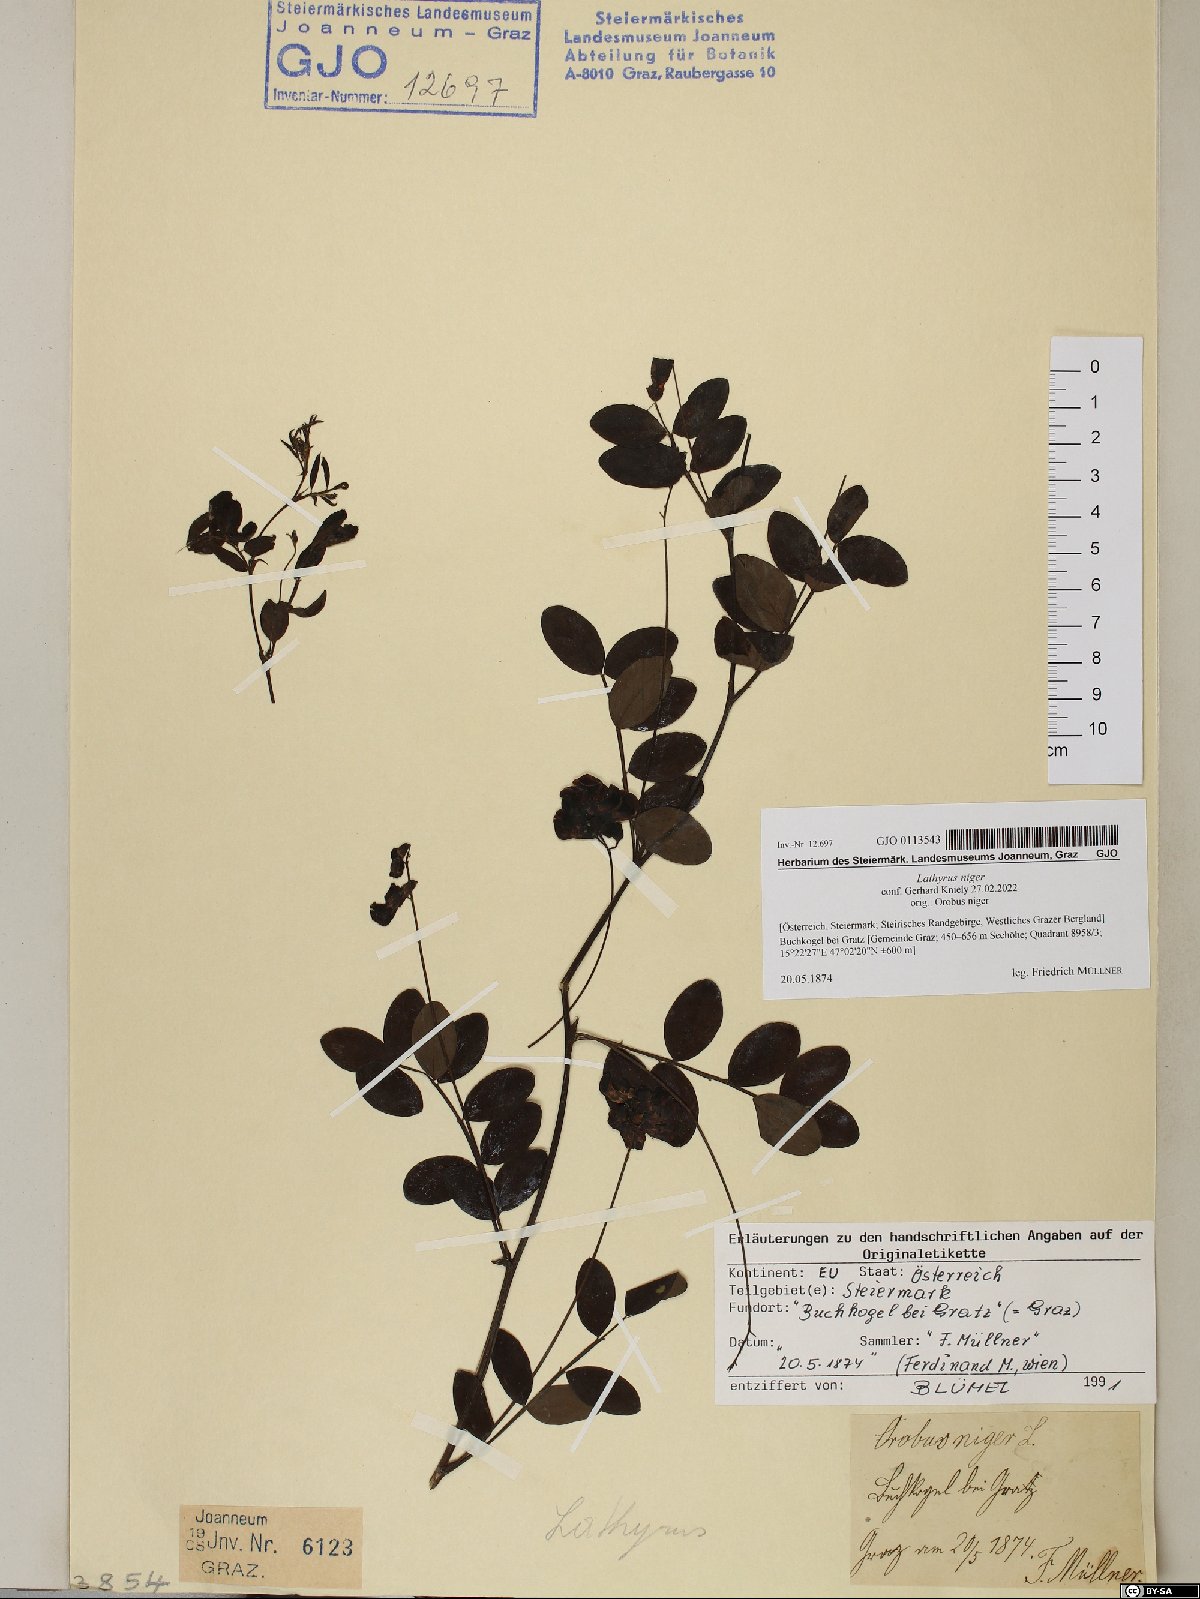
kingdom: Plantae
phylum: Tracheophyta
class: Magnoliopsida
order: Fabales
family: Fabaceae
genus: Lathyrus
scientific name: Lathyrus niger
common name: Black pea
